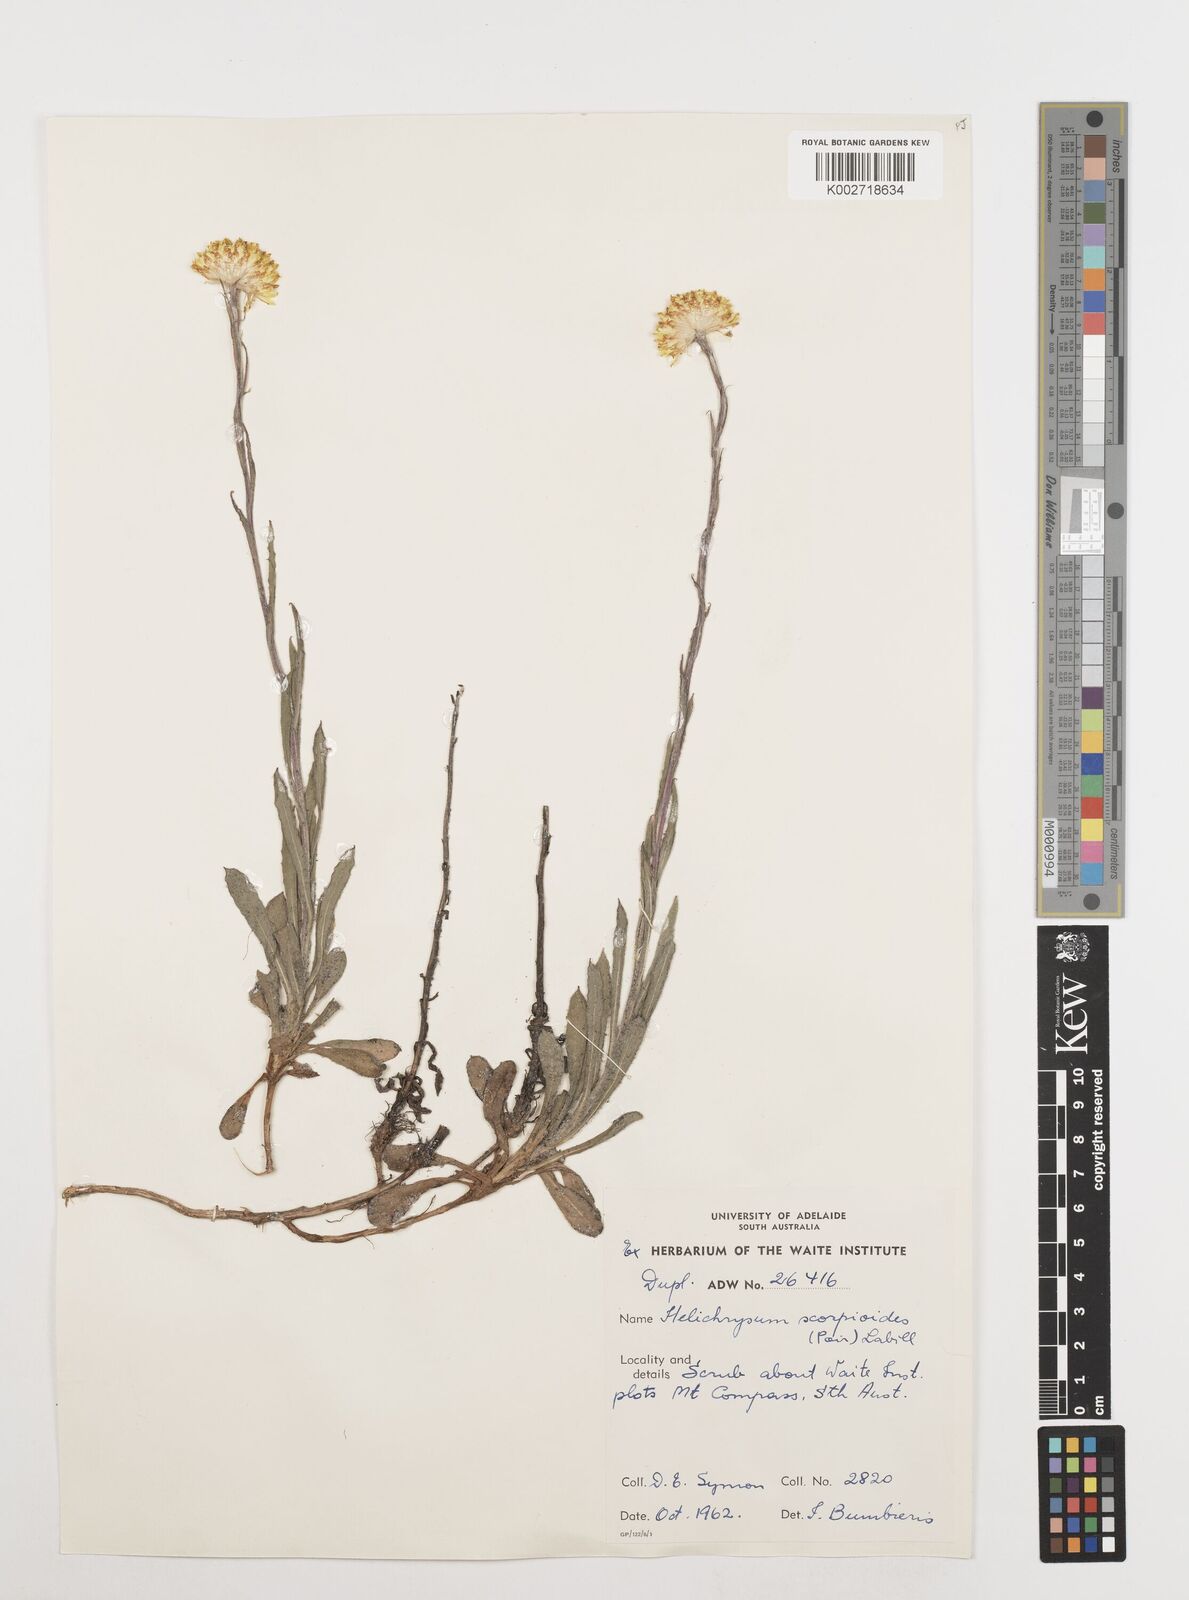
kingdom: Plantae
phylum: Tracheophyta
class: Magnoliopsida
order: Asterales
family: Asteraceae
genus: Coronidium
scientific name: Coronidium scorpioides
